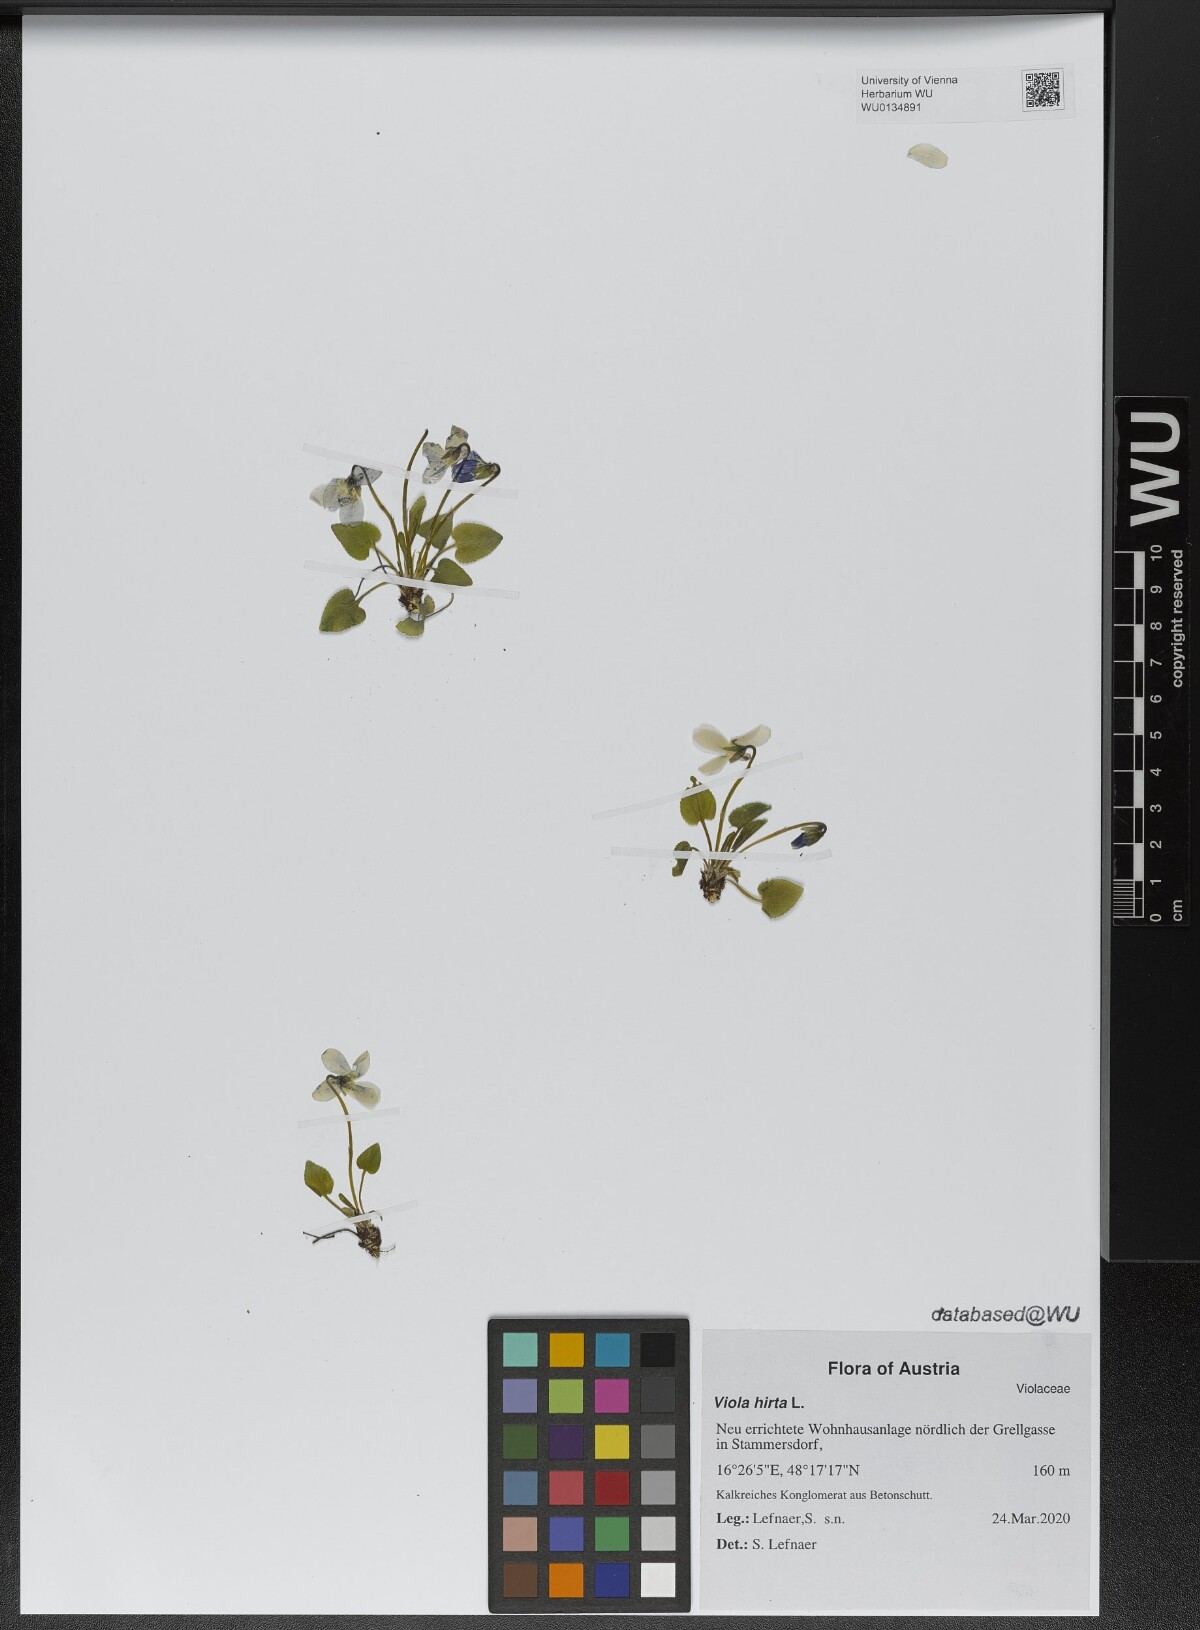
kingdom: Plantae
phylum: Tracheophyta
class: Magnoliopsida
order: Malpighiales
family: Violaceae
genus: Viola
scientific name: Viola hirta
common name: Hairy violet
